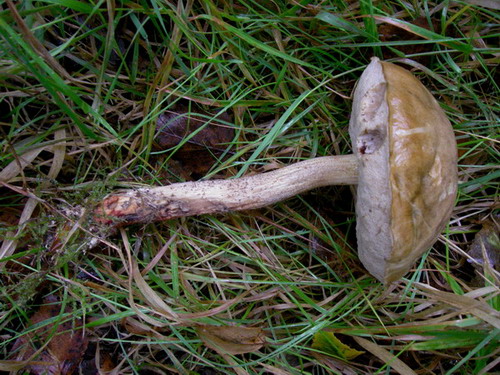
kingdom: Fungi
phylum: Basidiomycota
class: Agaricomycetes
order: Boletales
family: Boletaceae
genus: Leccinum
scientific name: Leccinum scabrum
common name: brun skælrørhat
